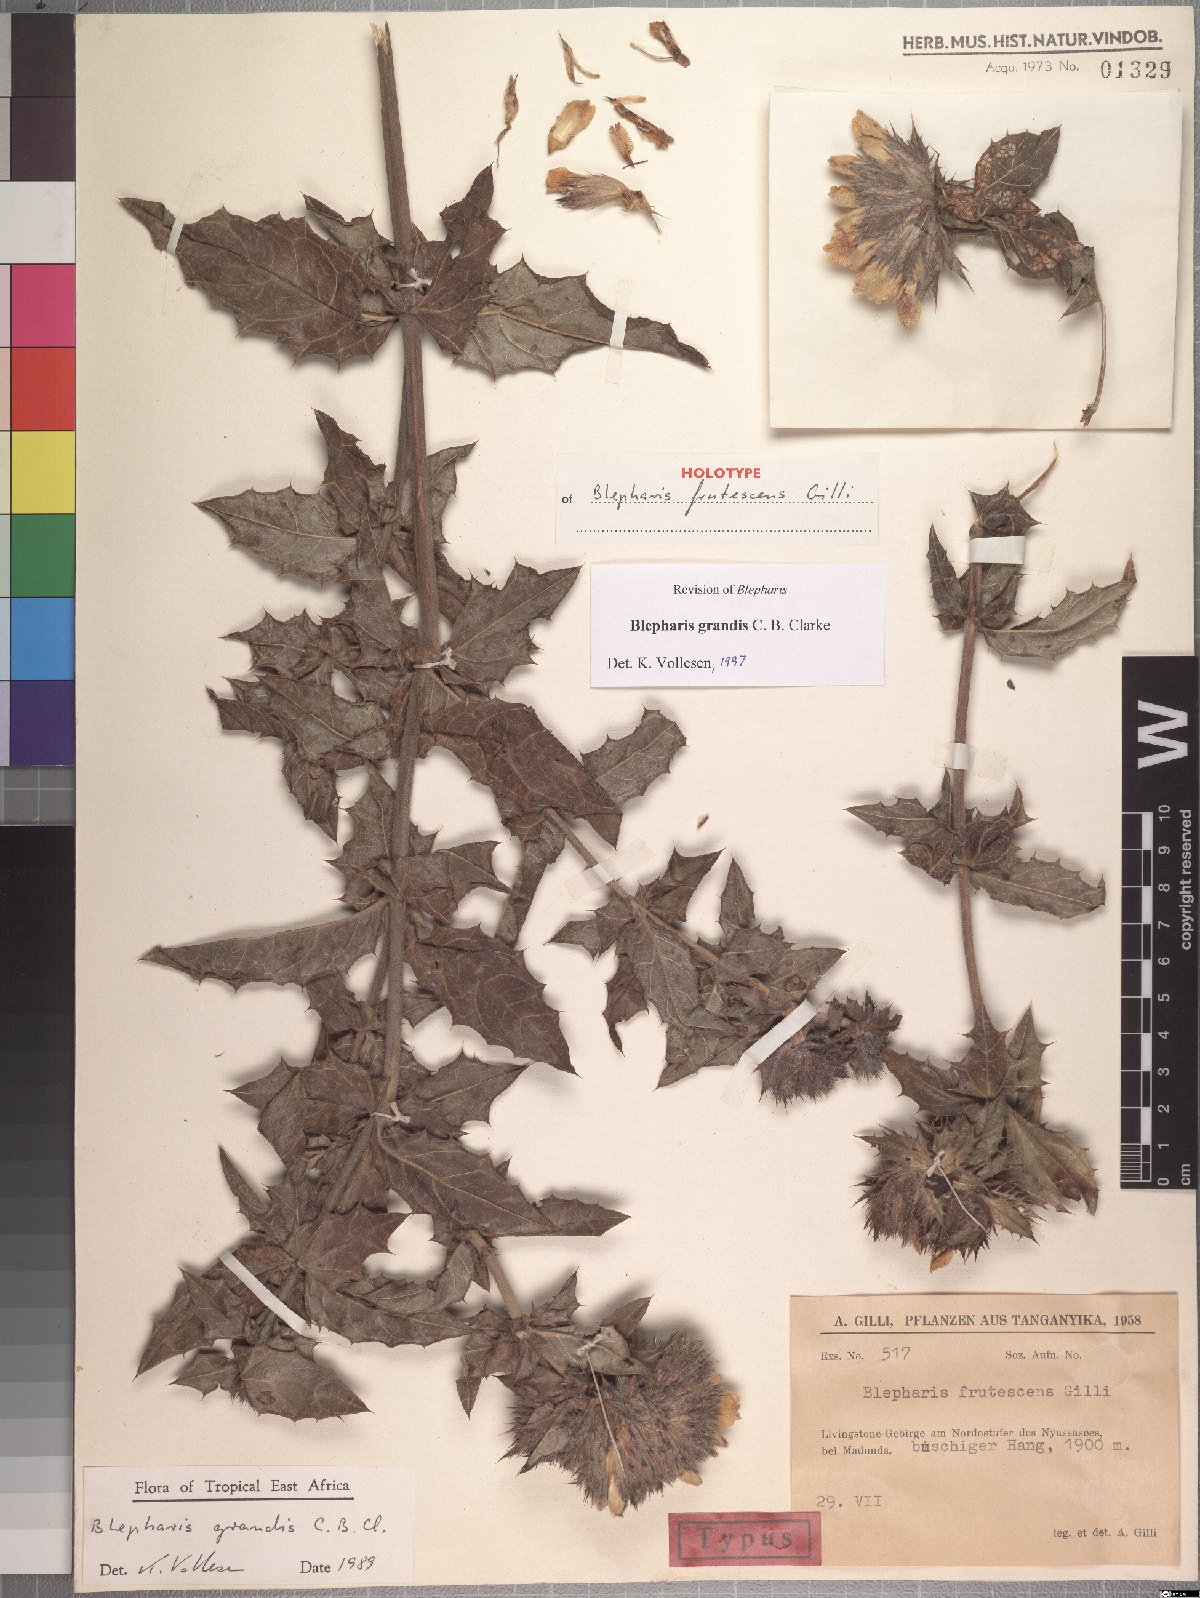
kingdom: Plantae
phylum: Tracheophyta
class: Magnoliopsida
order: Lamiales
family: Acanthaceae
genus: Blepharis
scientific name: Blepharis grandis
